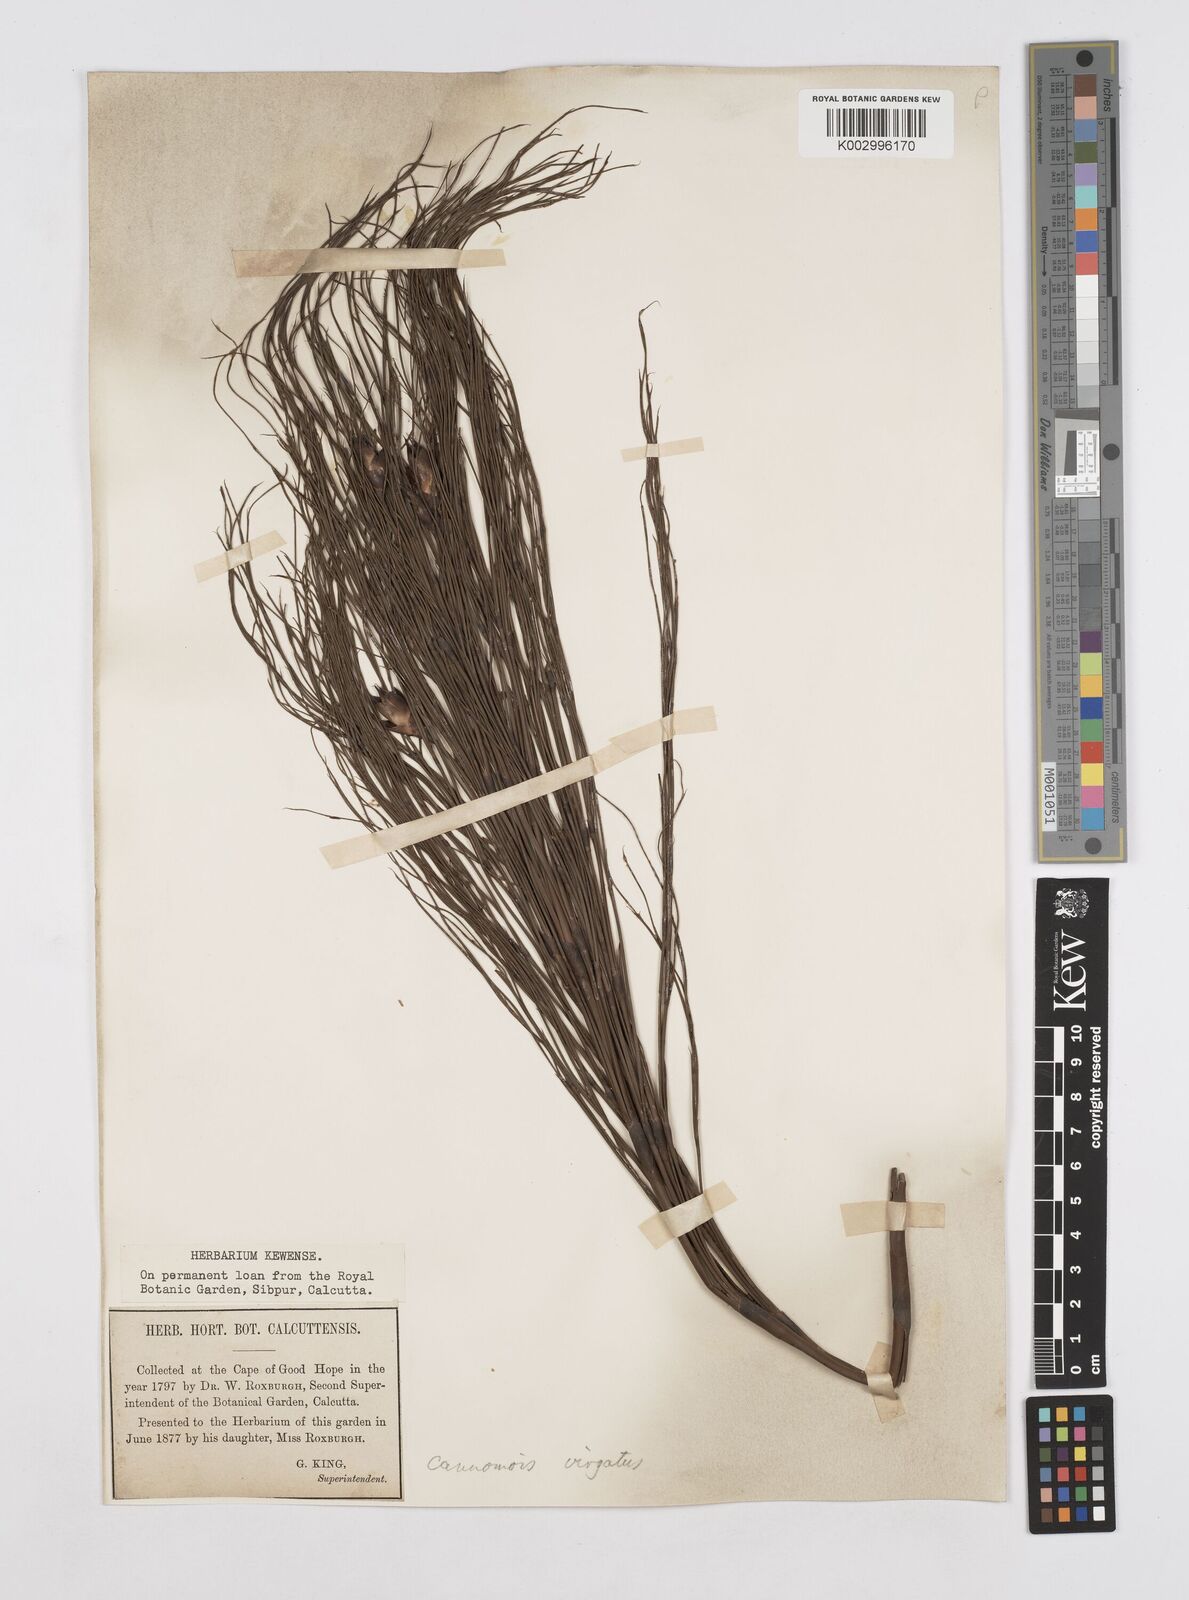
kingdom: Plantae
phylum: Tracheophyta
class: Liliopsida
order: Poales
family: Restionaceae
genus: Cannomois
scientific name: Cannomois virgata
